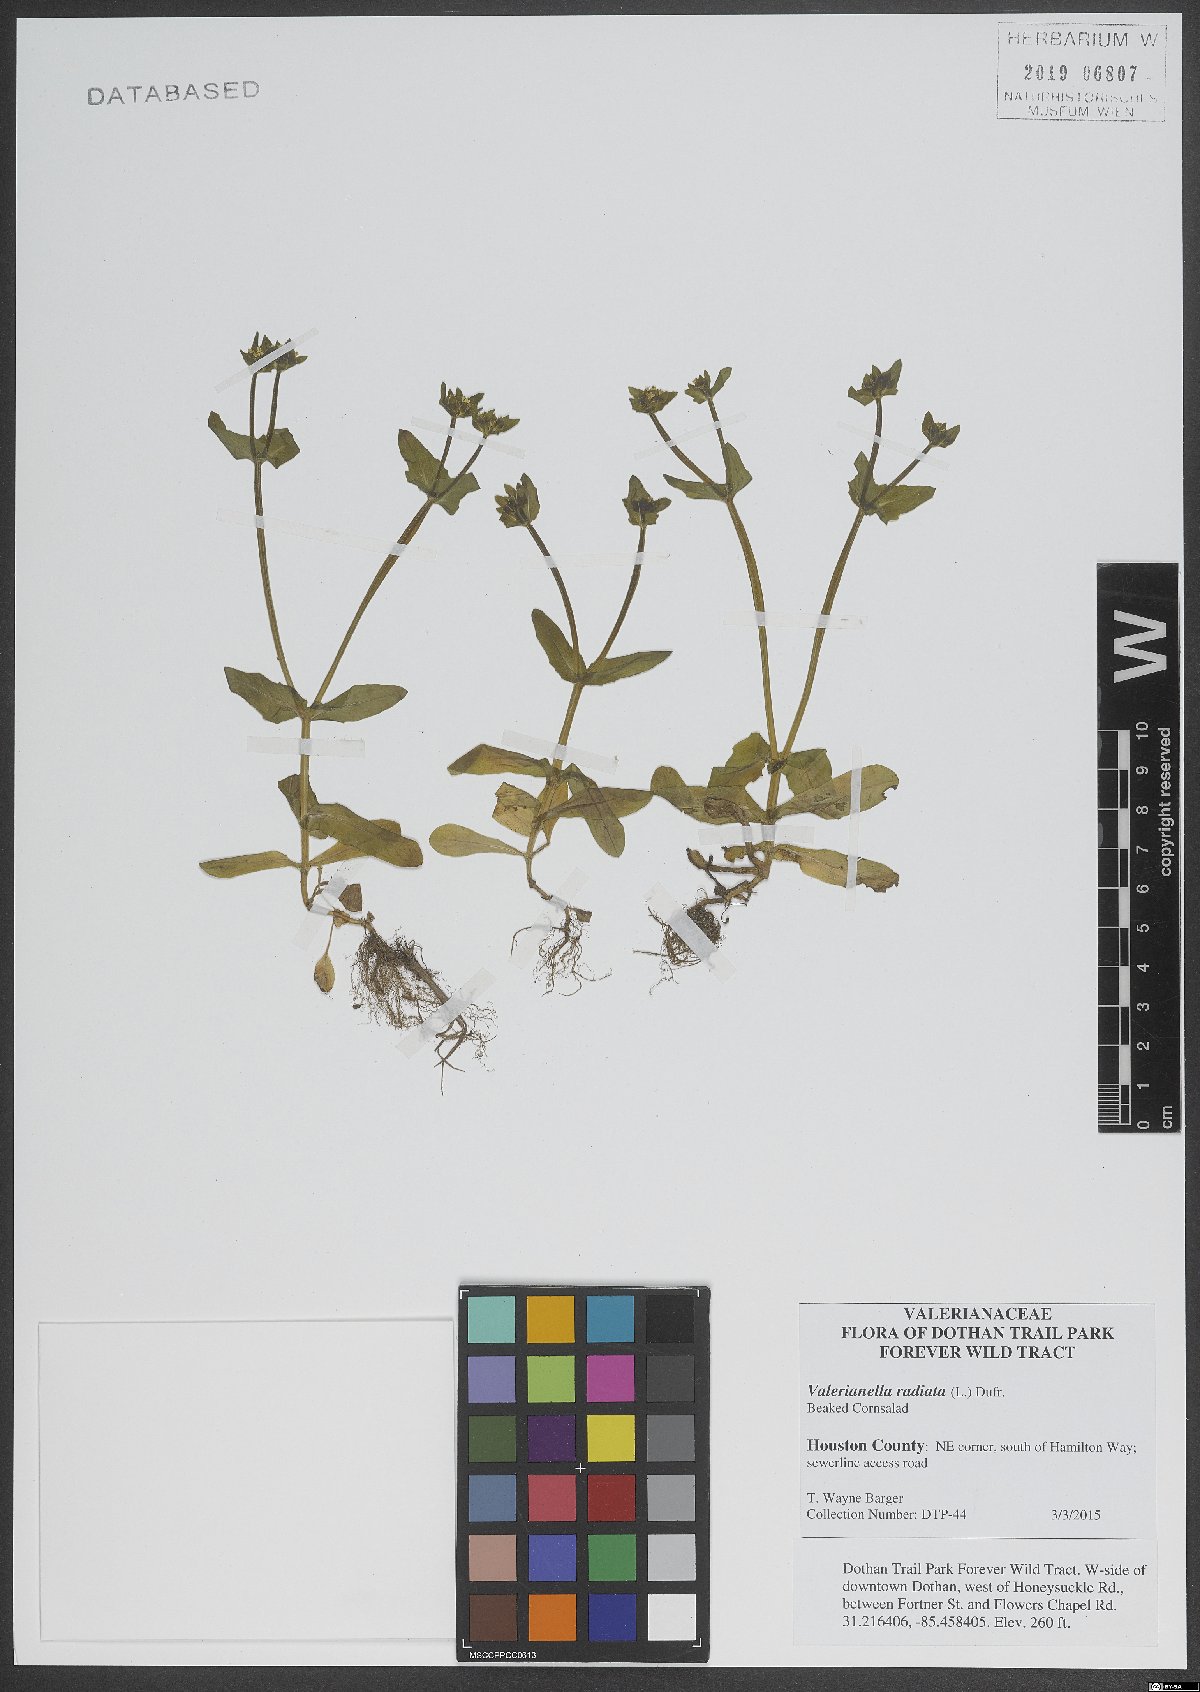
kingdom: Plantae
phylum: Tracheophyta
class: Magnoliopsida
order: Dipsacales
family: Caprifoliaceae
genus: Valerianella
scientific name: Valerianella radiata
